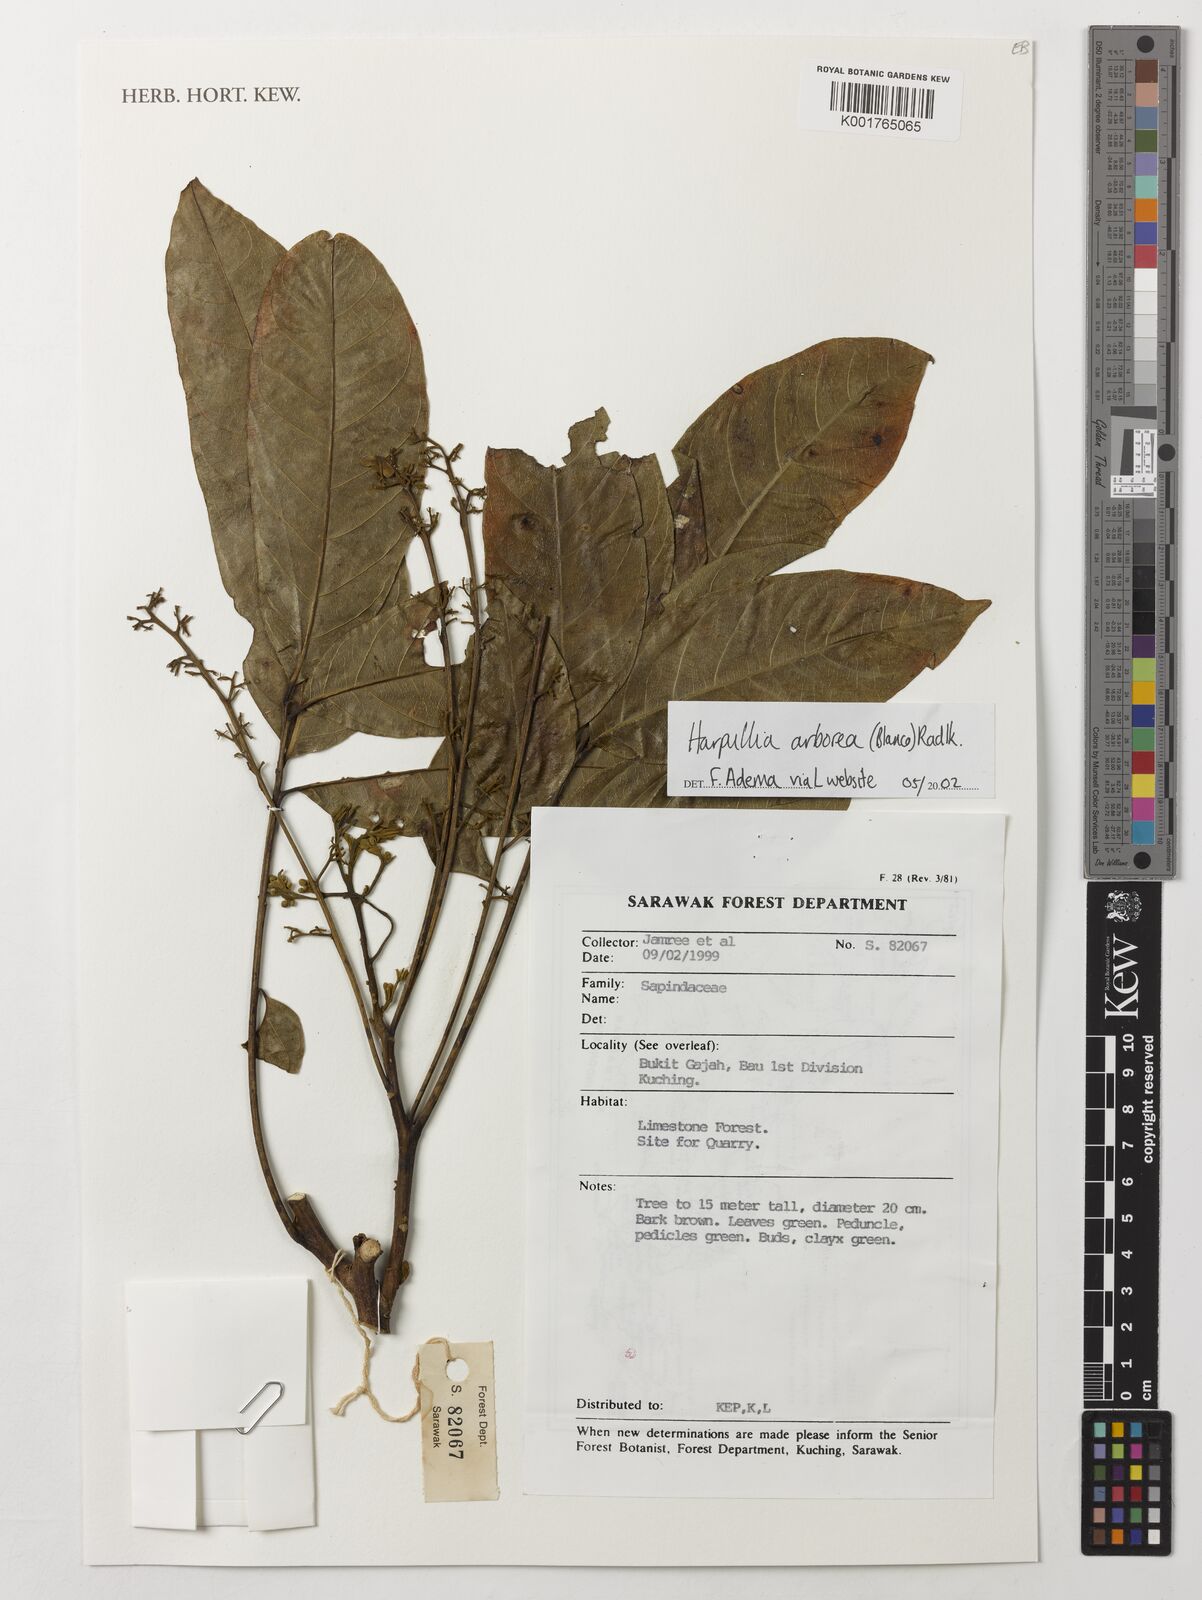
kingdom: Plantae
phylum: Tracheophyta
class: Magnoliopsida
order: Sapindales
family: Sapindaceae
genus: Harpullia
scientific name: Harpullia arborea
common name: Tulip-wood tree
